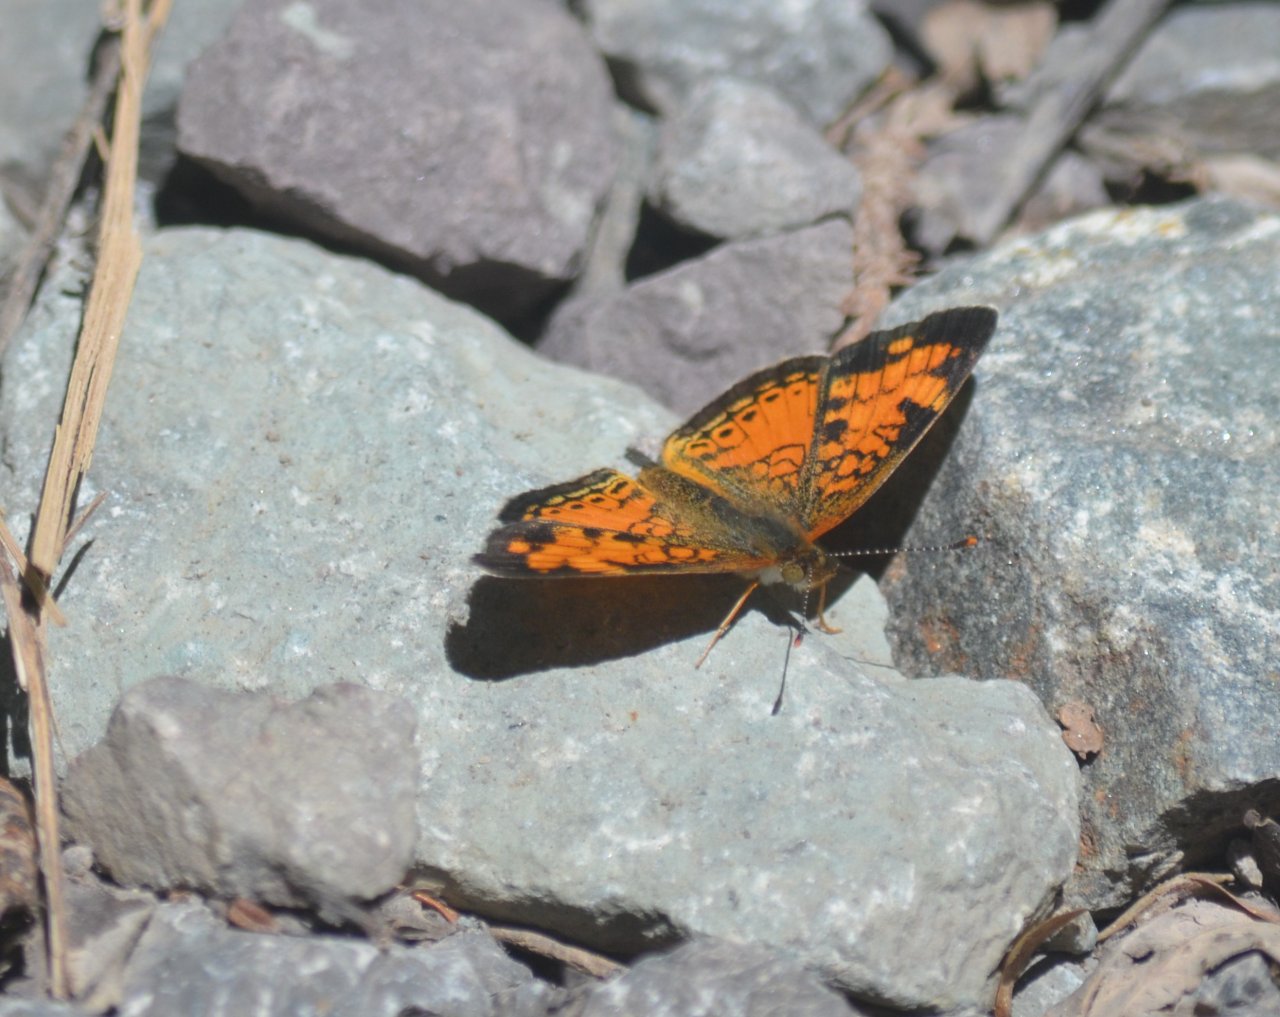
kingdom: Animalia
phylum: Arthropoda
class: Insecta
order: Lepidoptera
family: Nymphalidae
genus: Phyciodes
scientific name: Phyciodes tharos
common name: Northern Crescent
